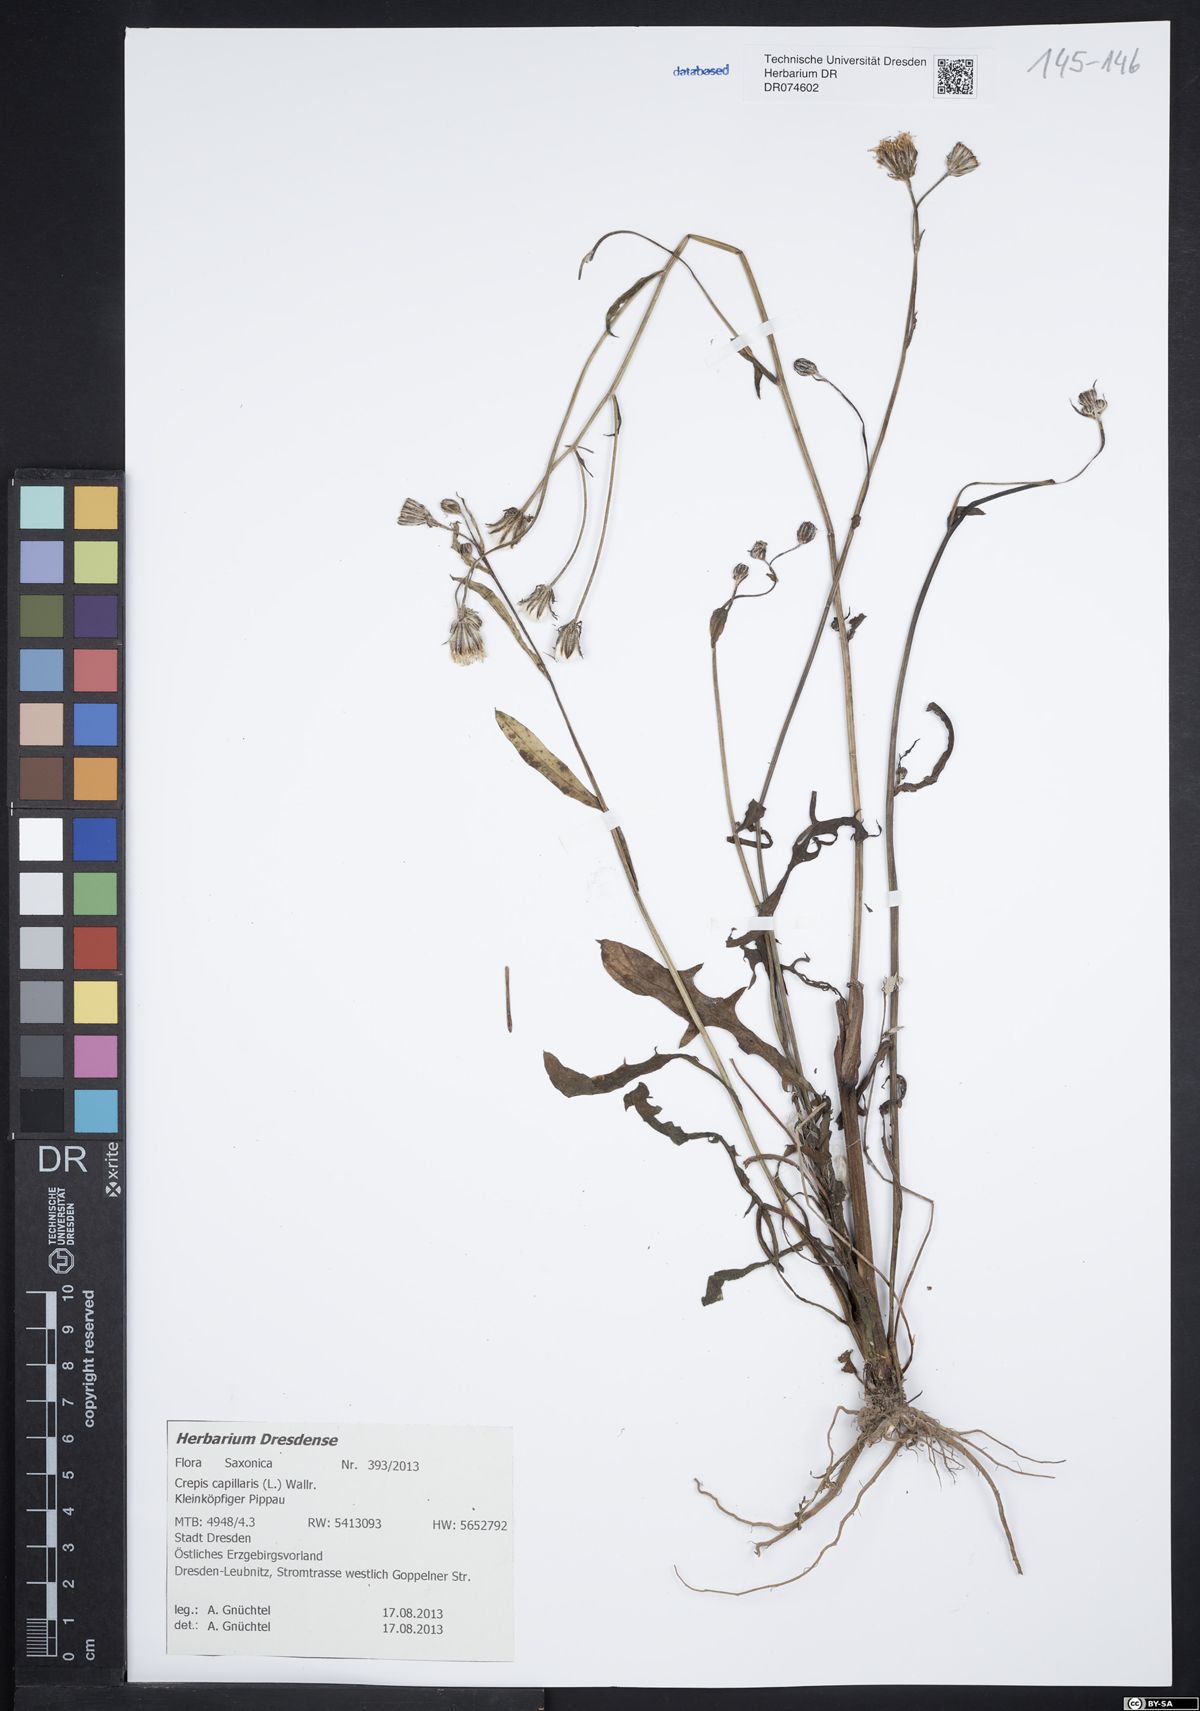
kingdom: Plantae
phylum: Tracheophyta
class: Magnoliopsida
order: Asterales
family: Asteraceae
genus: Crepis
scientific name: Crepis capillaris
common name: Smooth hawksbeard
